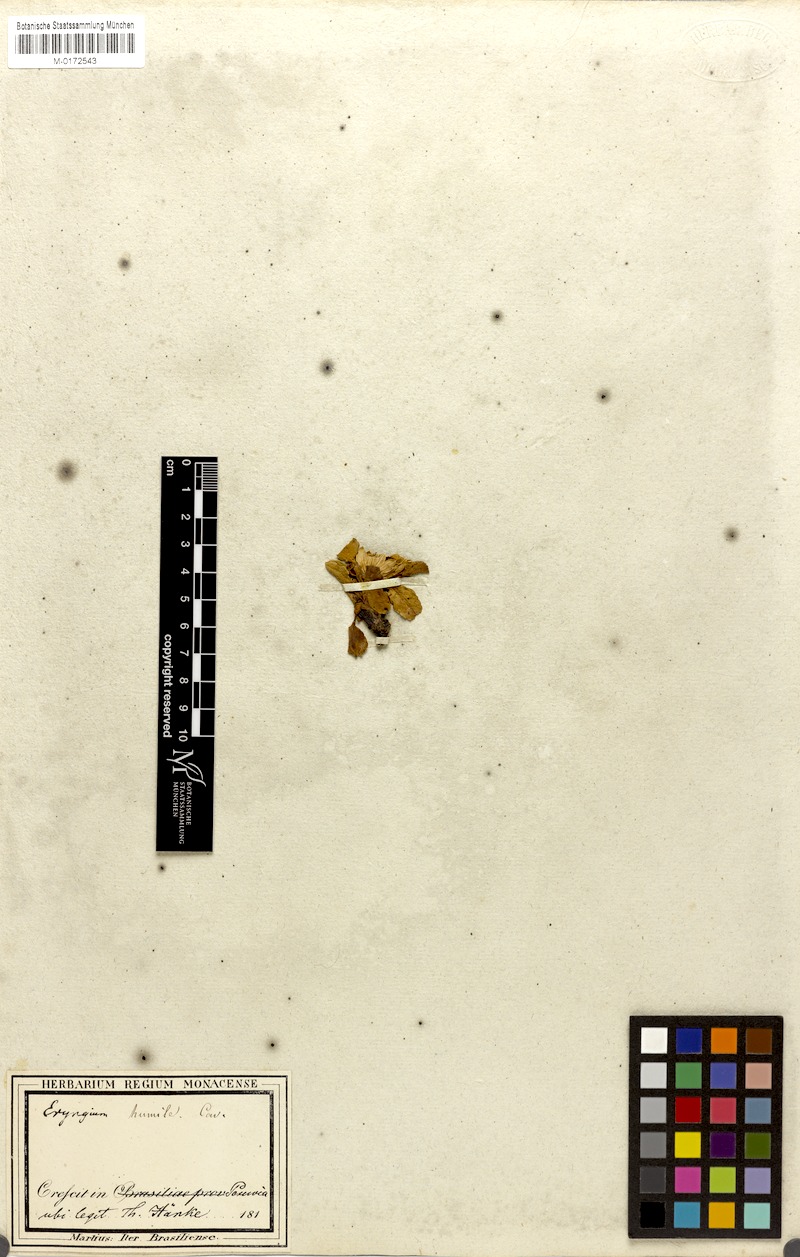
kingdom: Plantae
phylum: Tracheophyta
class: Magnoliopsida
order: Apiales
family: Apiaceae
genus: Eryngium
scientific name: Eryngium humile
